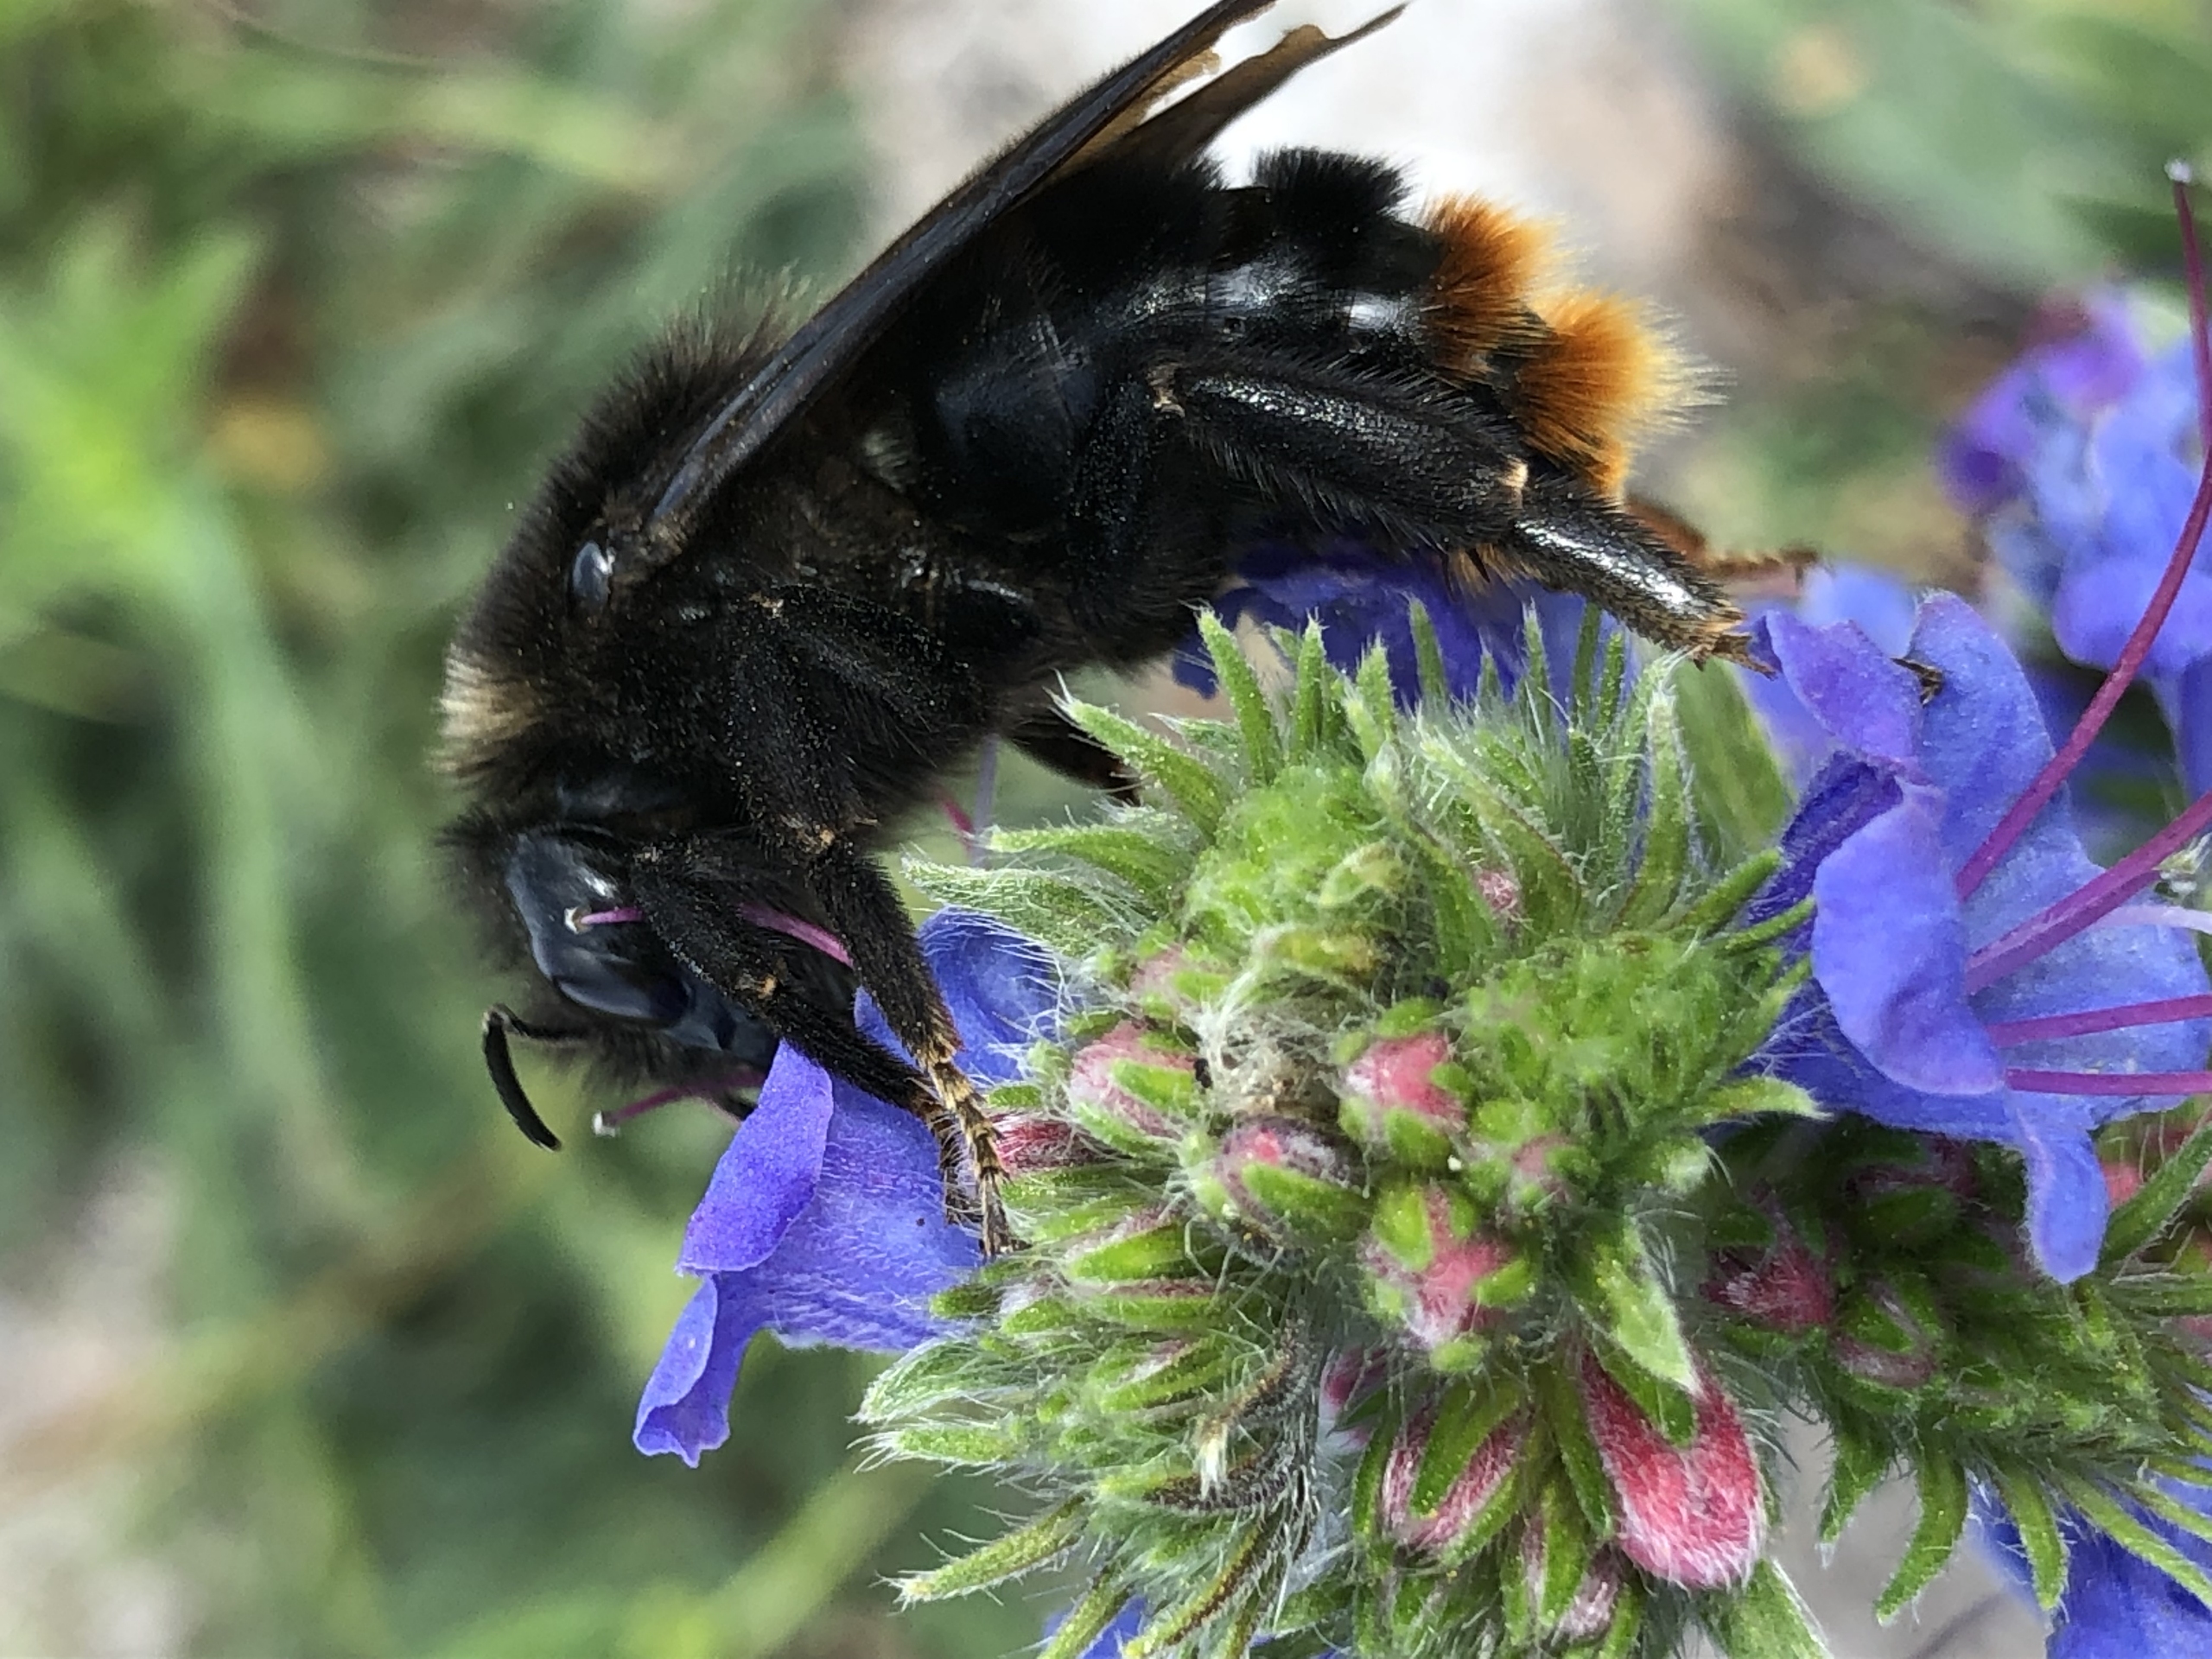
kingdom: Animalia
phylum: Arthropoda
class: Insecta
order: Hymenoptera
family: Apidae
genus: Bombus
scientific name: Bombus rupestris
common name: Stensnyltehumle
